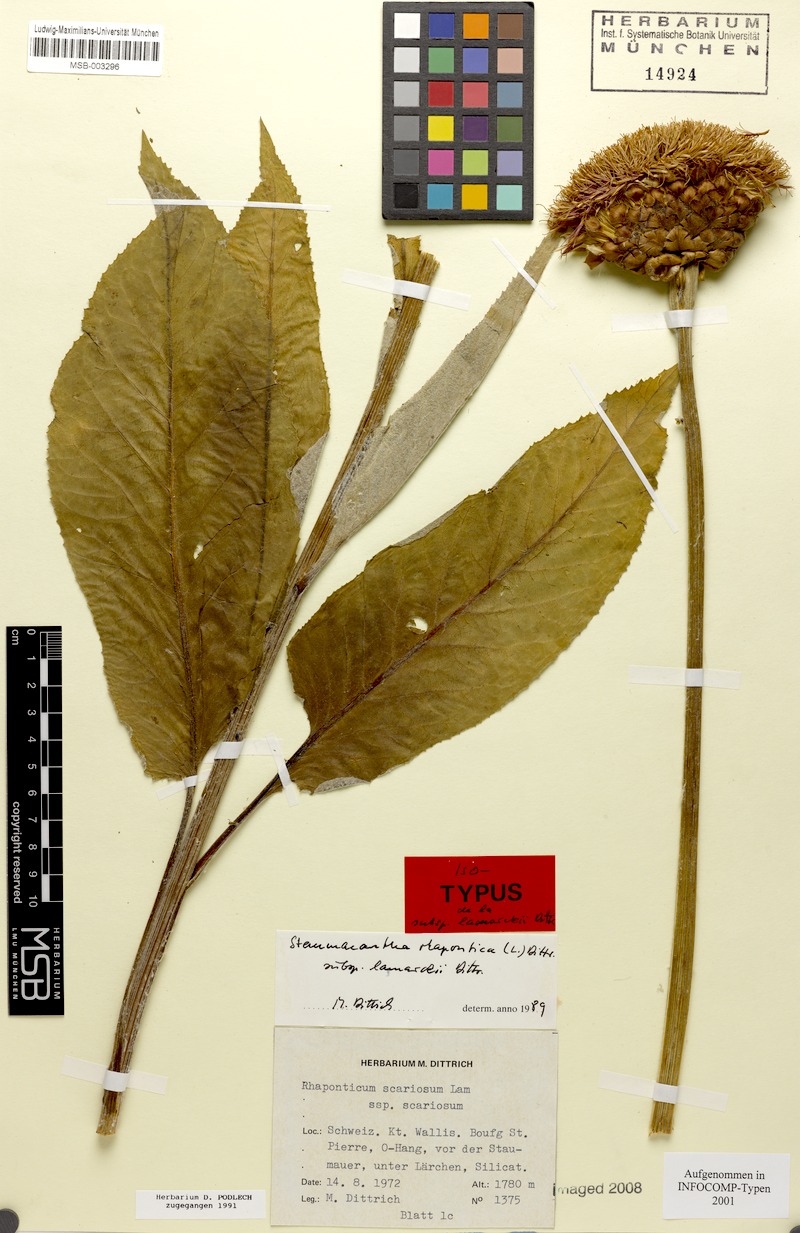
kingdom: Plantae
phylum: Tracheophyta
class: Magnoliopsida
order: Asterales
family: Asteraceae
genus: Leuzea
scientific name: Leuzea pusilla
